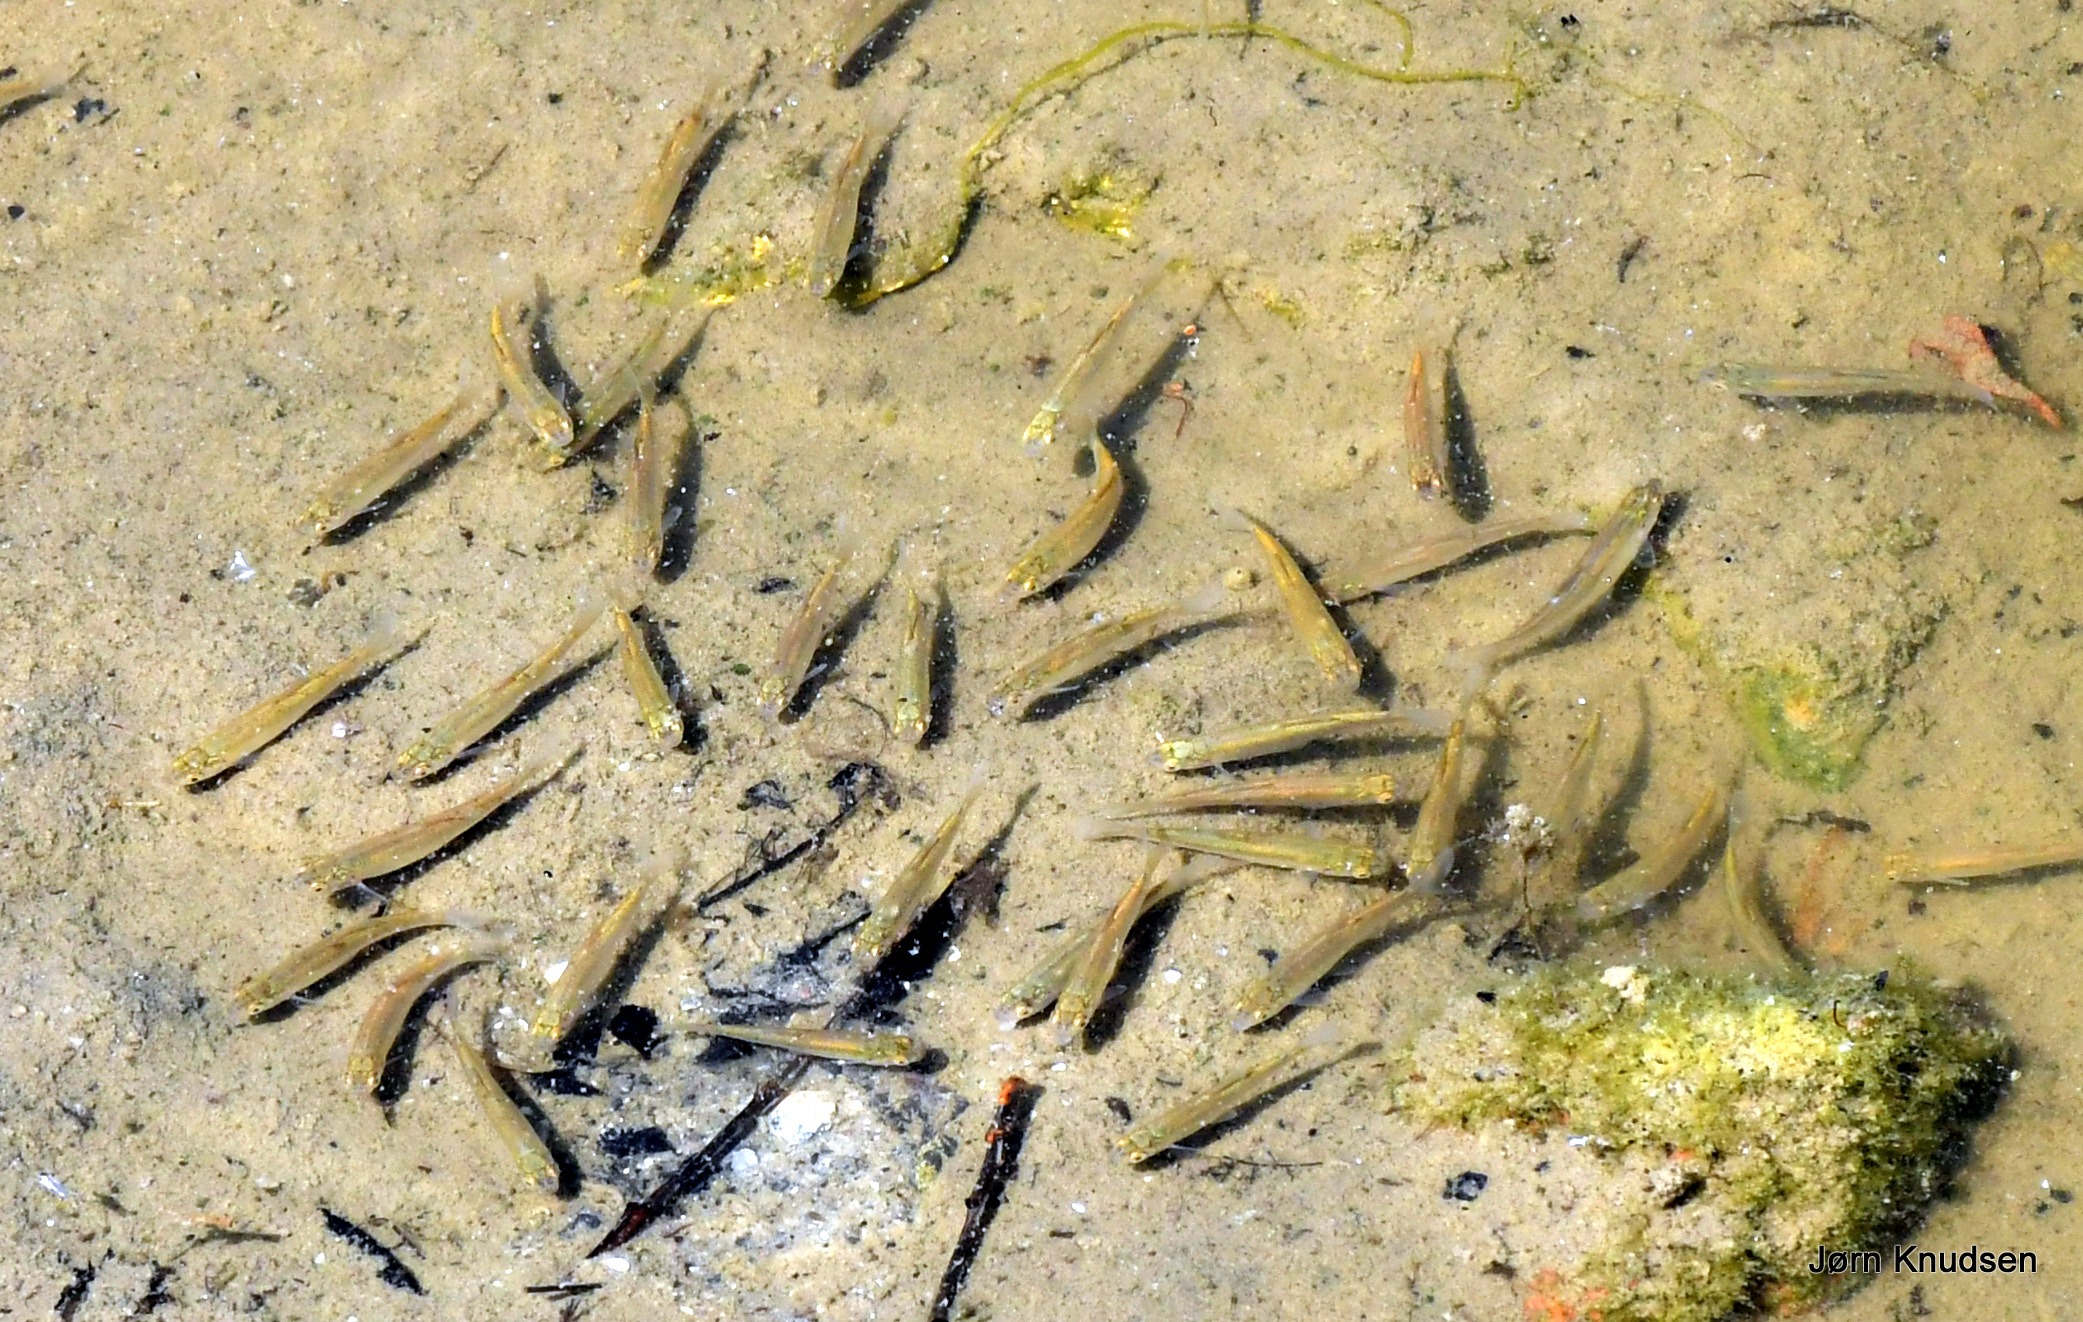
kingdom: Animalia
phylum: Chordata
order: Cypriniformes
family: Cyprinidae
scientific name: Cyprinidae
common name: Karpefamilien
